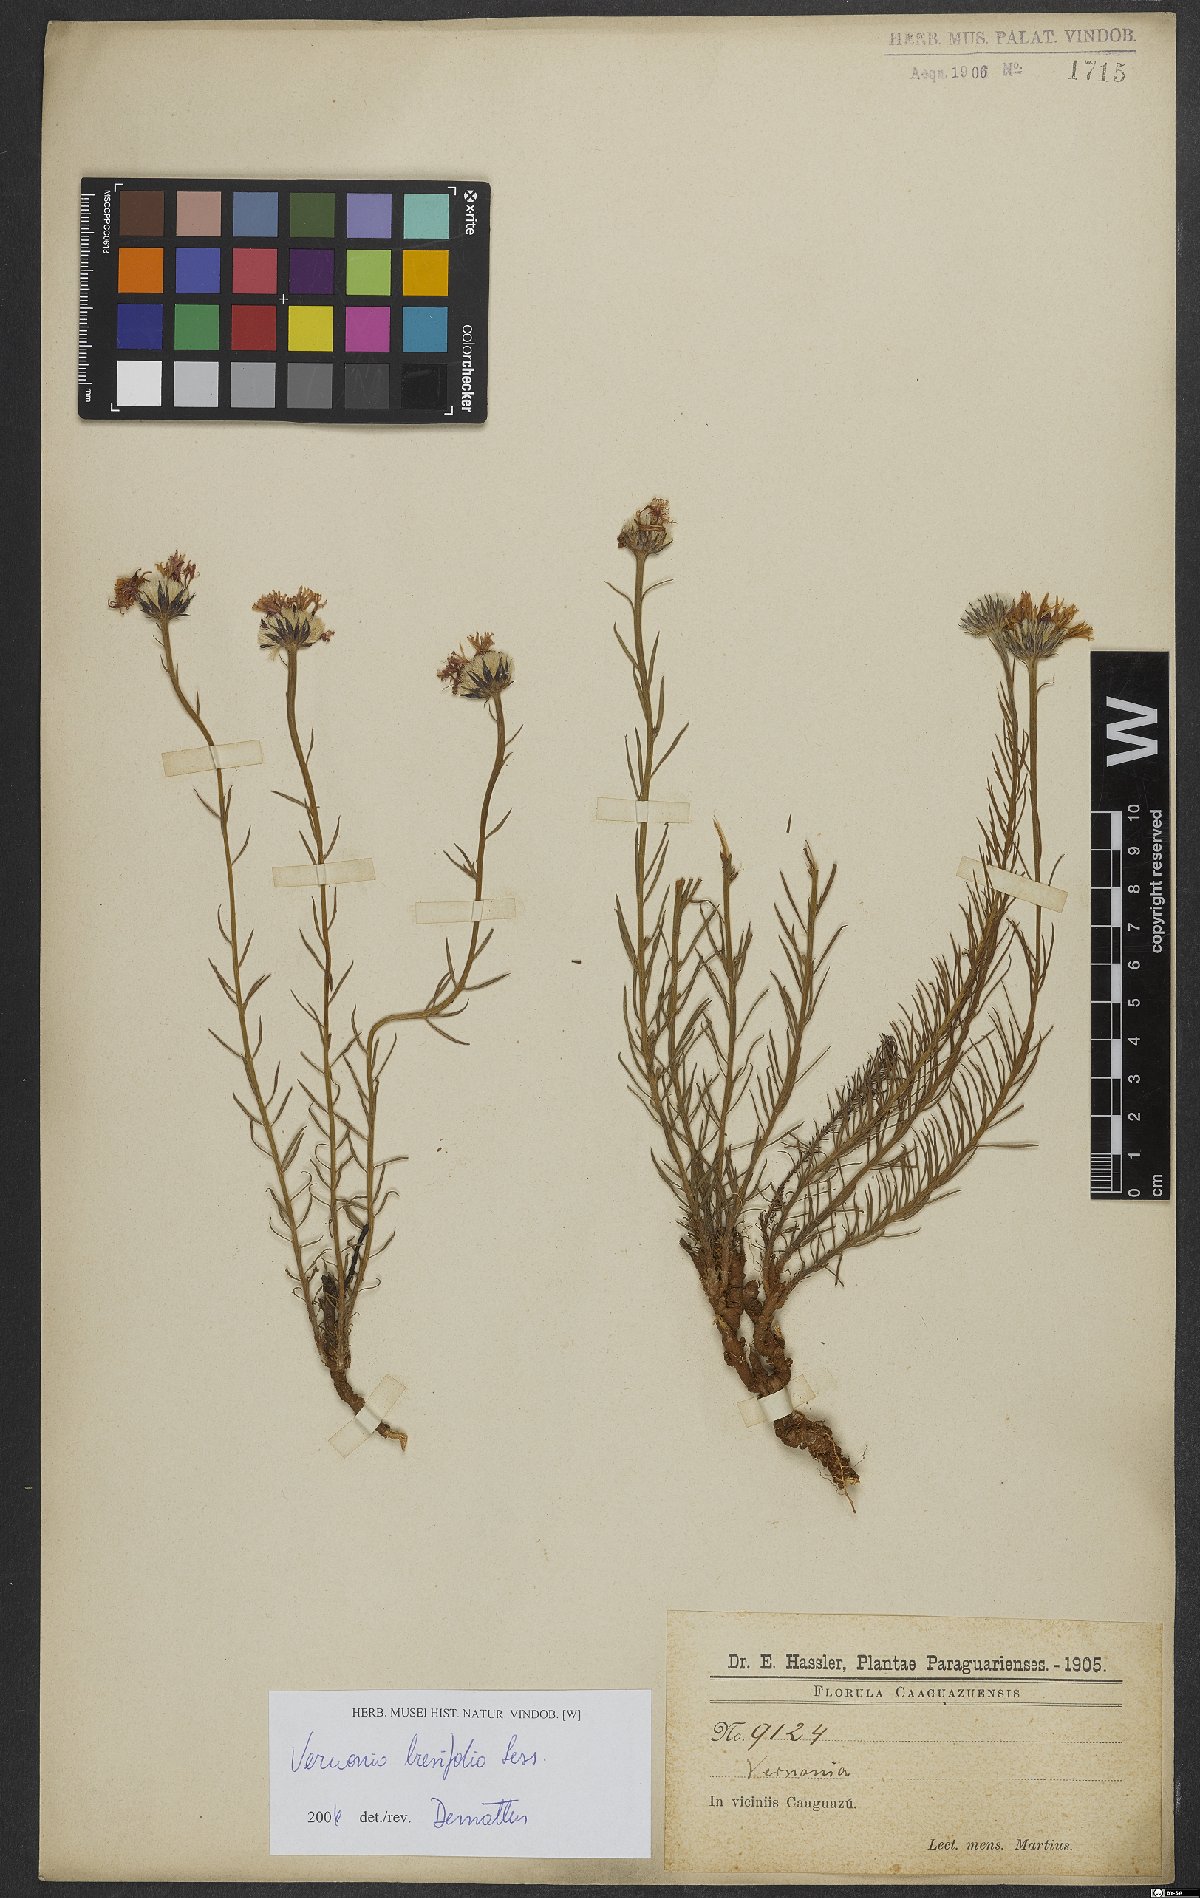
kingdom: Plantae
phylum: Tracheophyta
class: Magnoliopsida
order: Asterales
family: Asteraceae
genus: Lessingianthus
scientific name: Lessingianthus brevifolius
